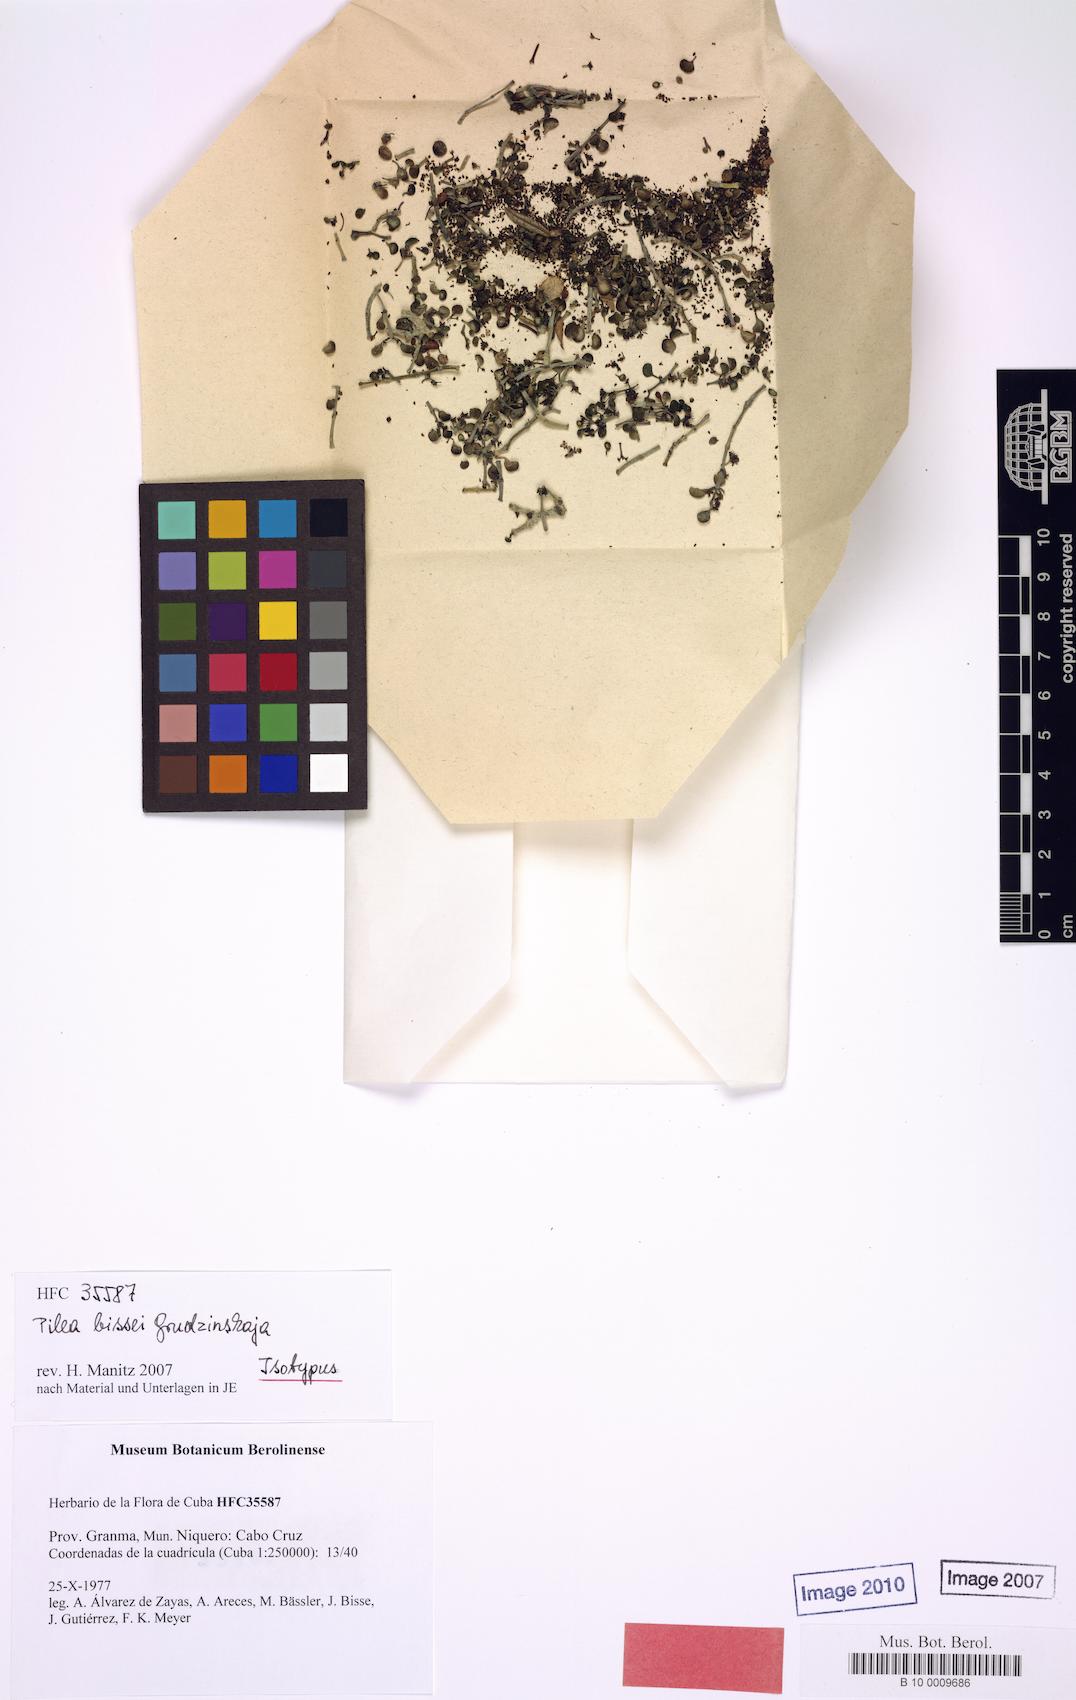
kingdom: Plantae
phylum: Tracheophyta
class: Magnoliopsida
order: Rosales
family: Urticaceae
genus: Pilea
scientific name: Pilea bissei
